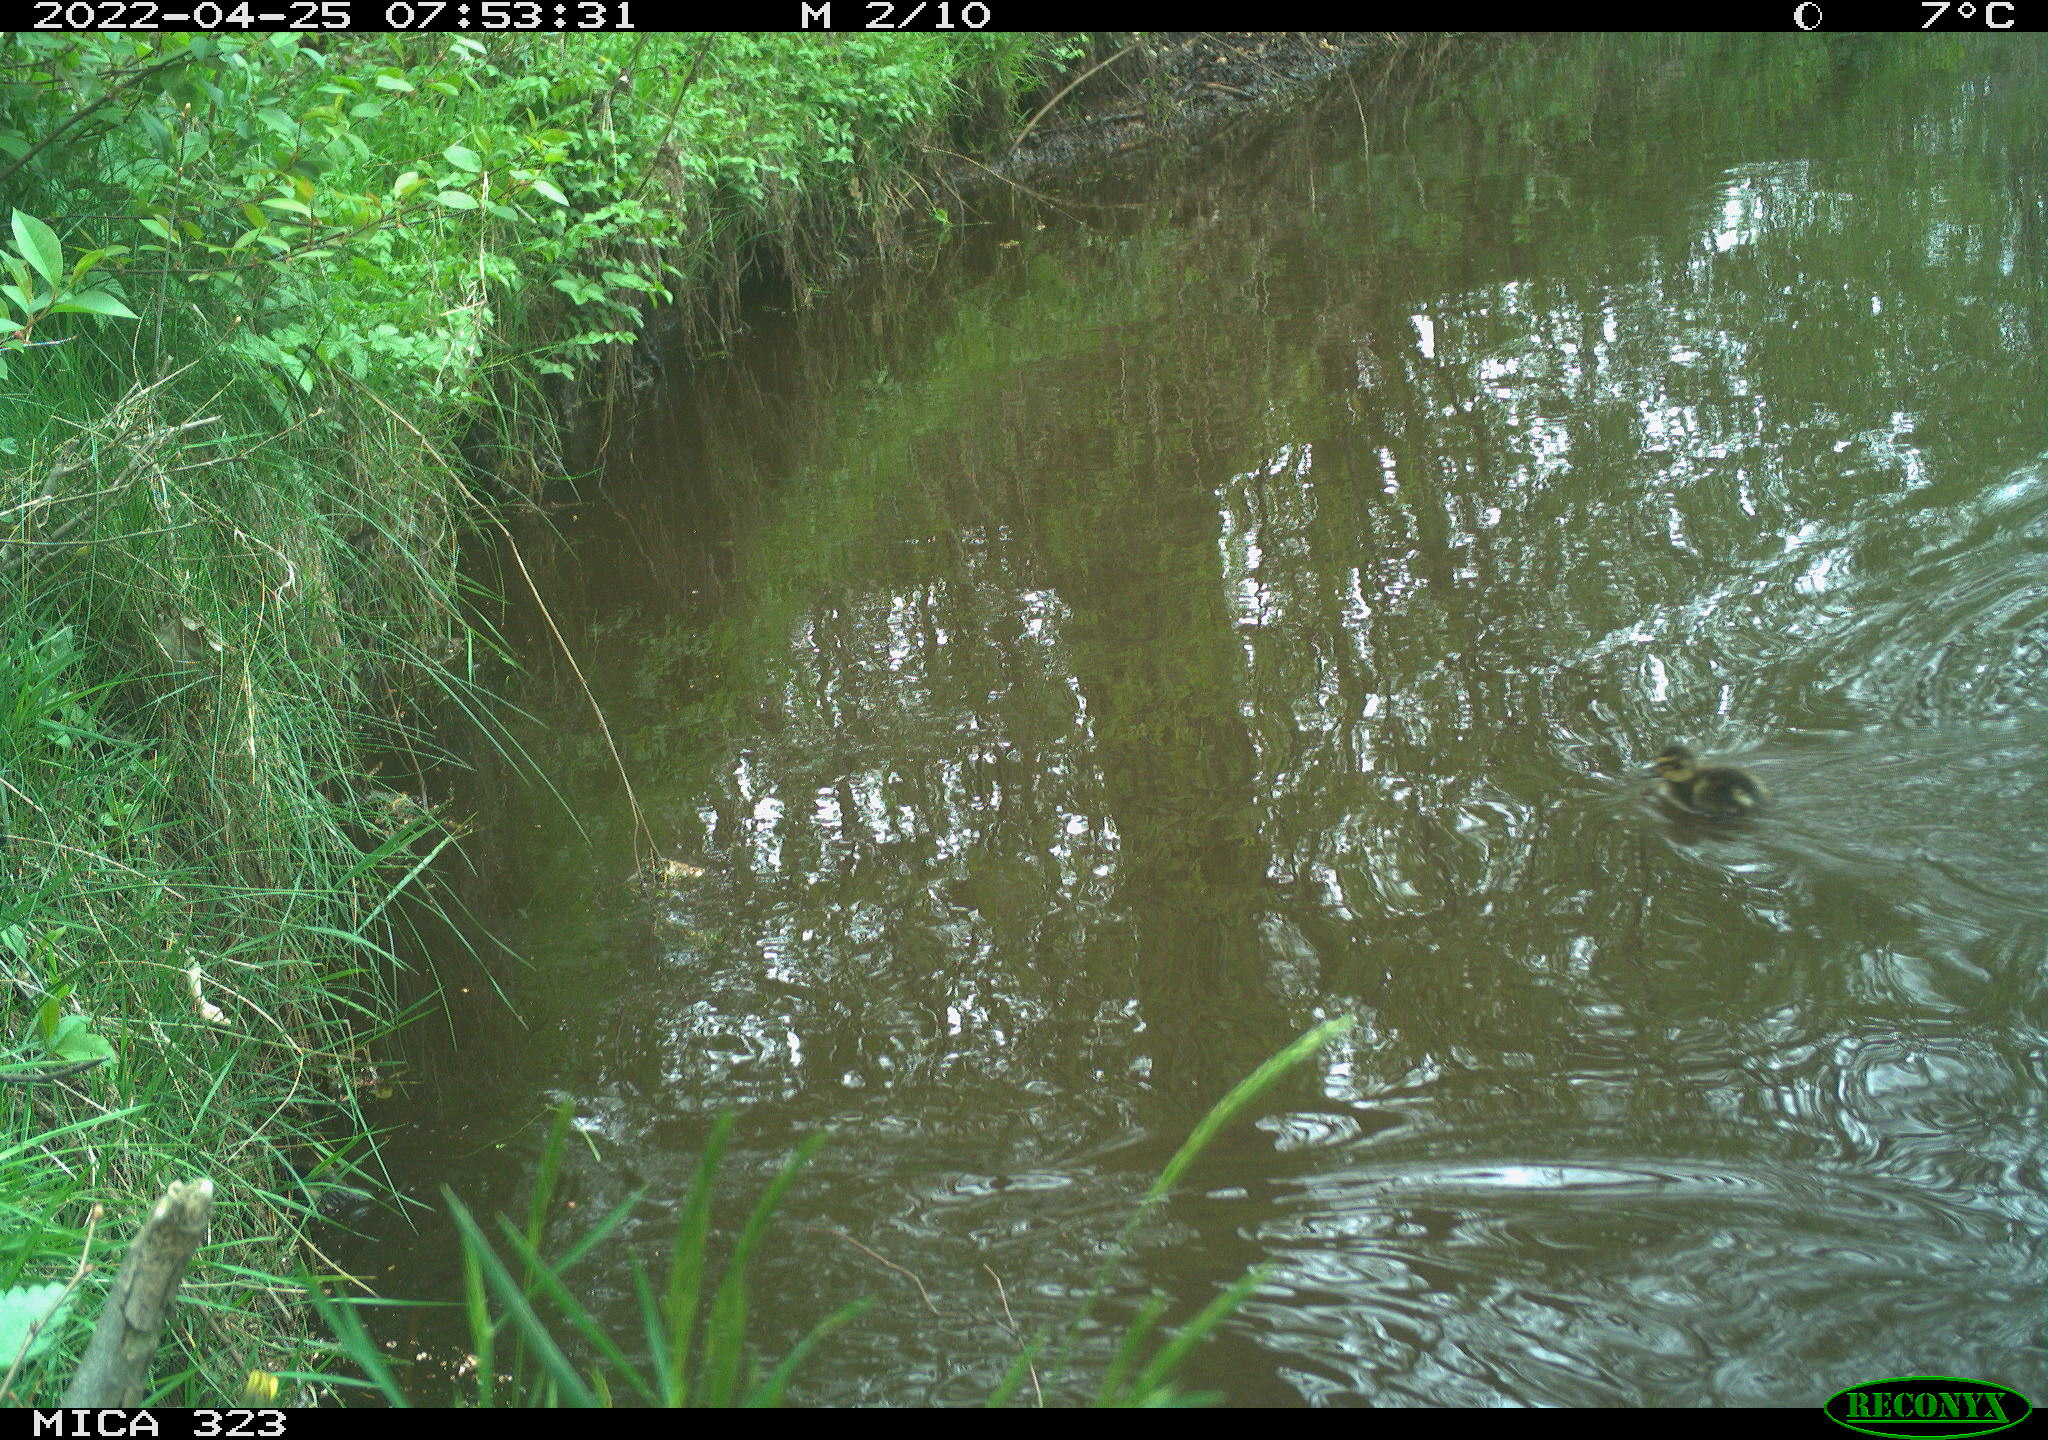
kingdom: Animalia
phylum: Chordata
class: Aves
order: Anseriformes
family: Anatidae
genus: Anas
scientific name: Anas
